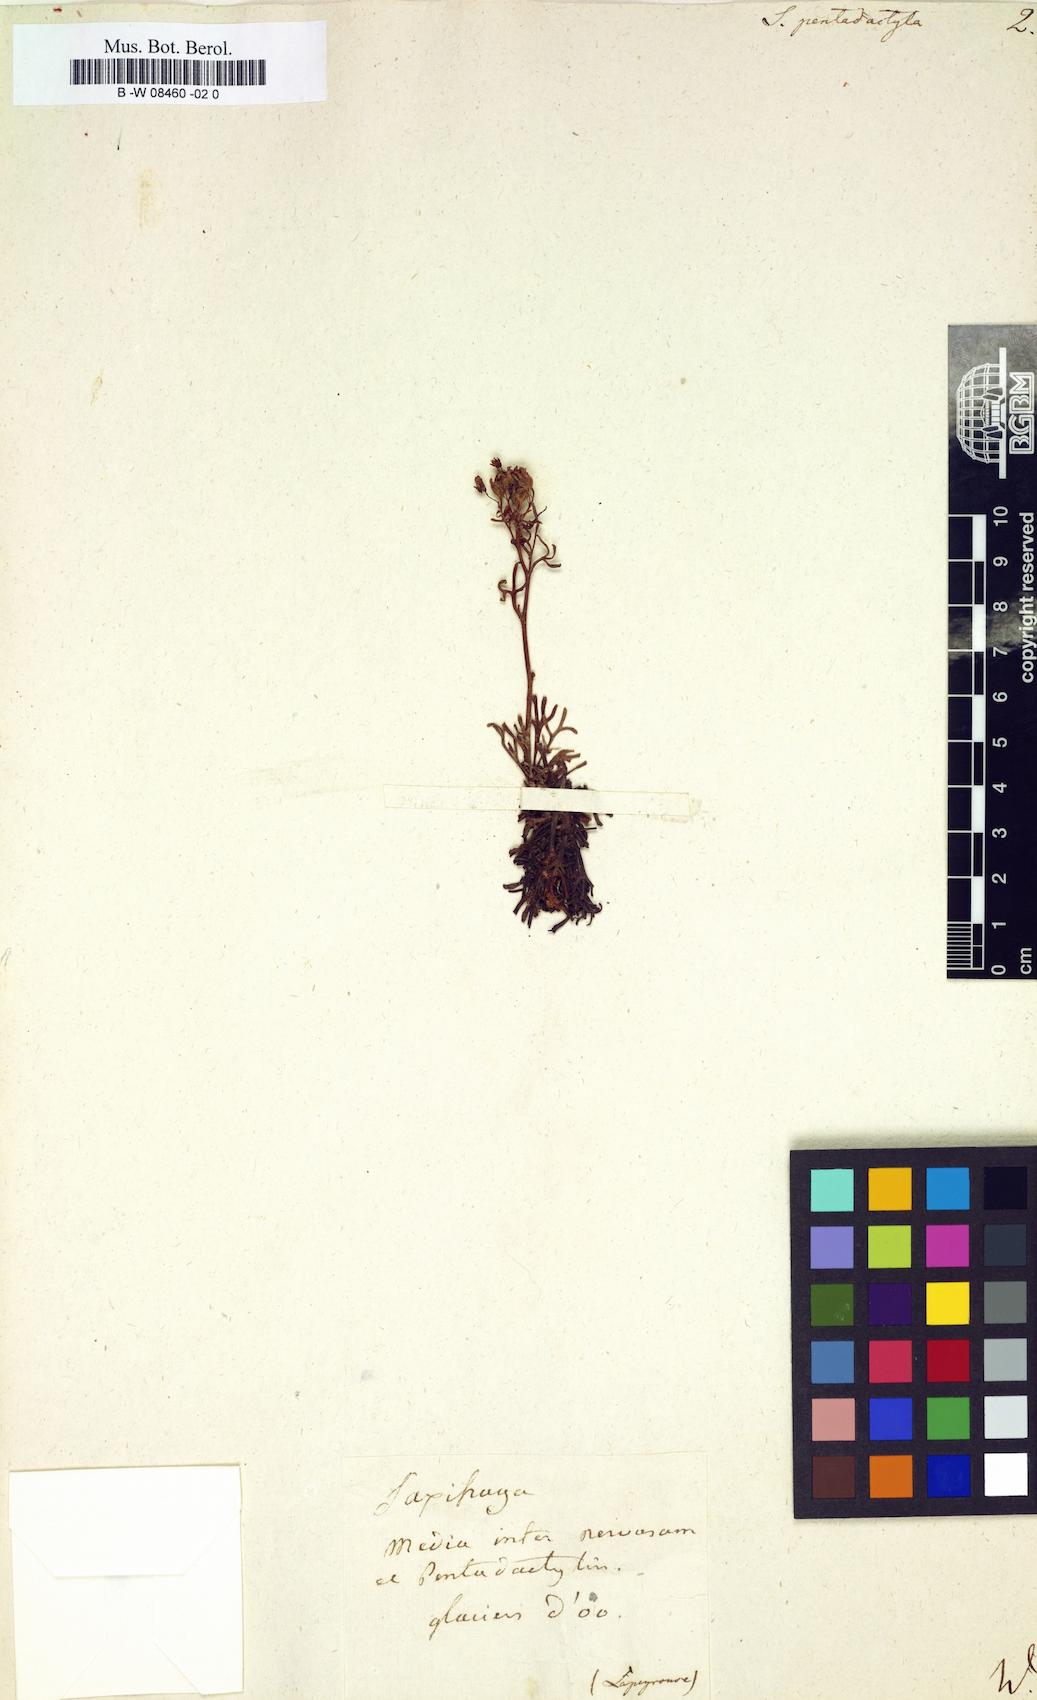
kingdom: Plantae
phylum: Tracheophyta
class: Magnoliopsida
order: Saxifragales
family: Saxifragaceae
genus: Saxifraga
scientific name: Saxifraga pentadactylis
